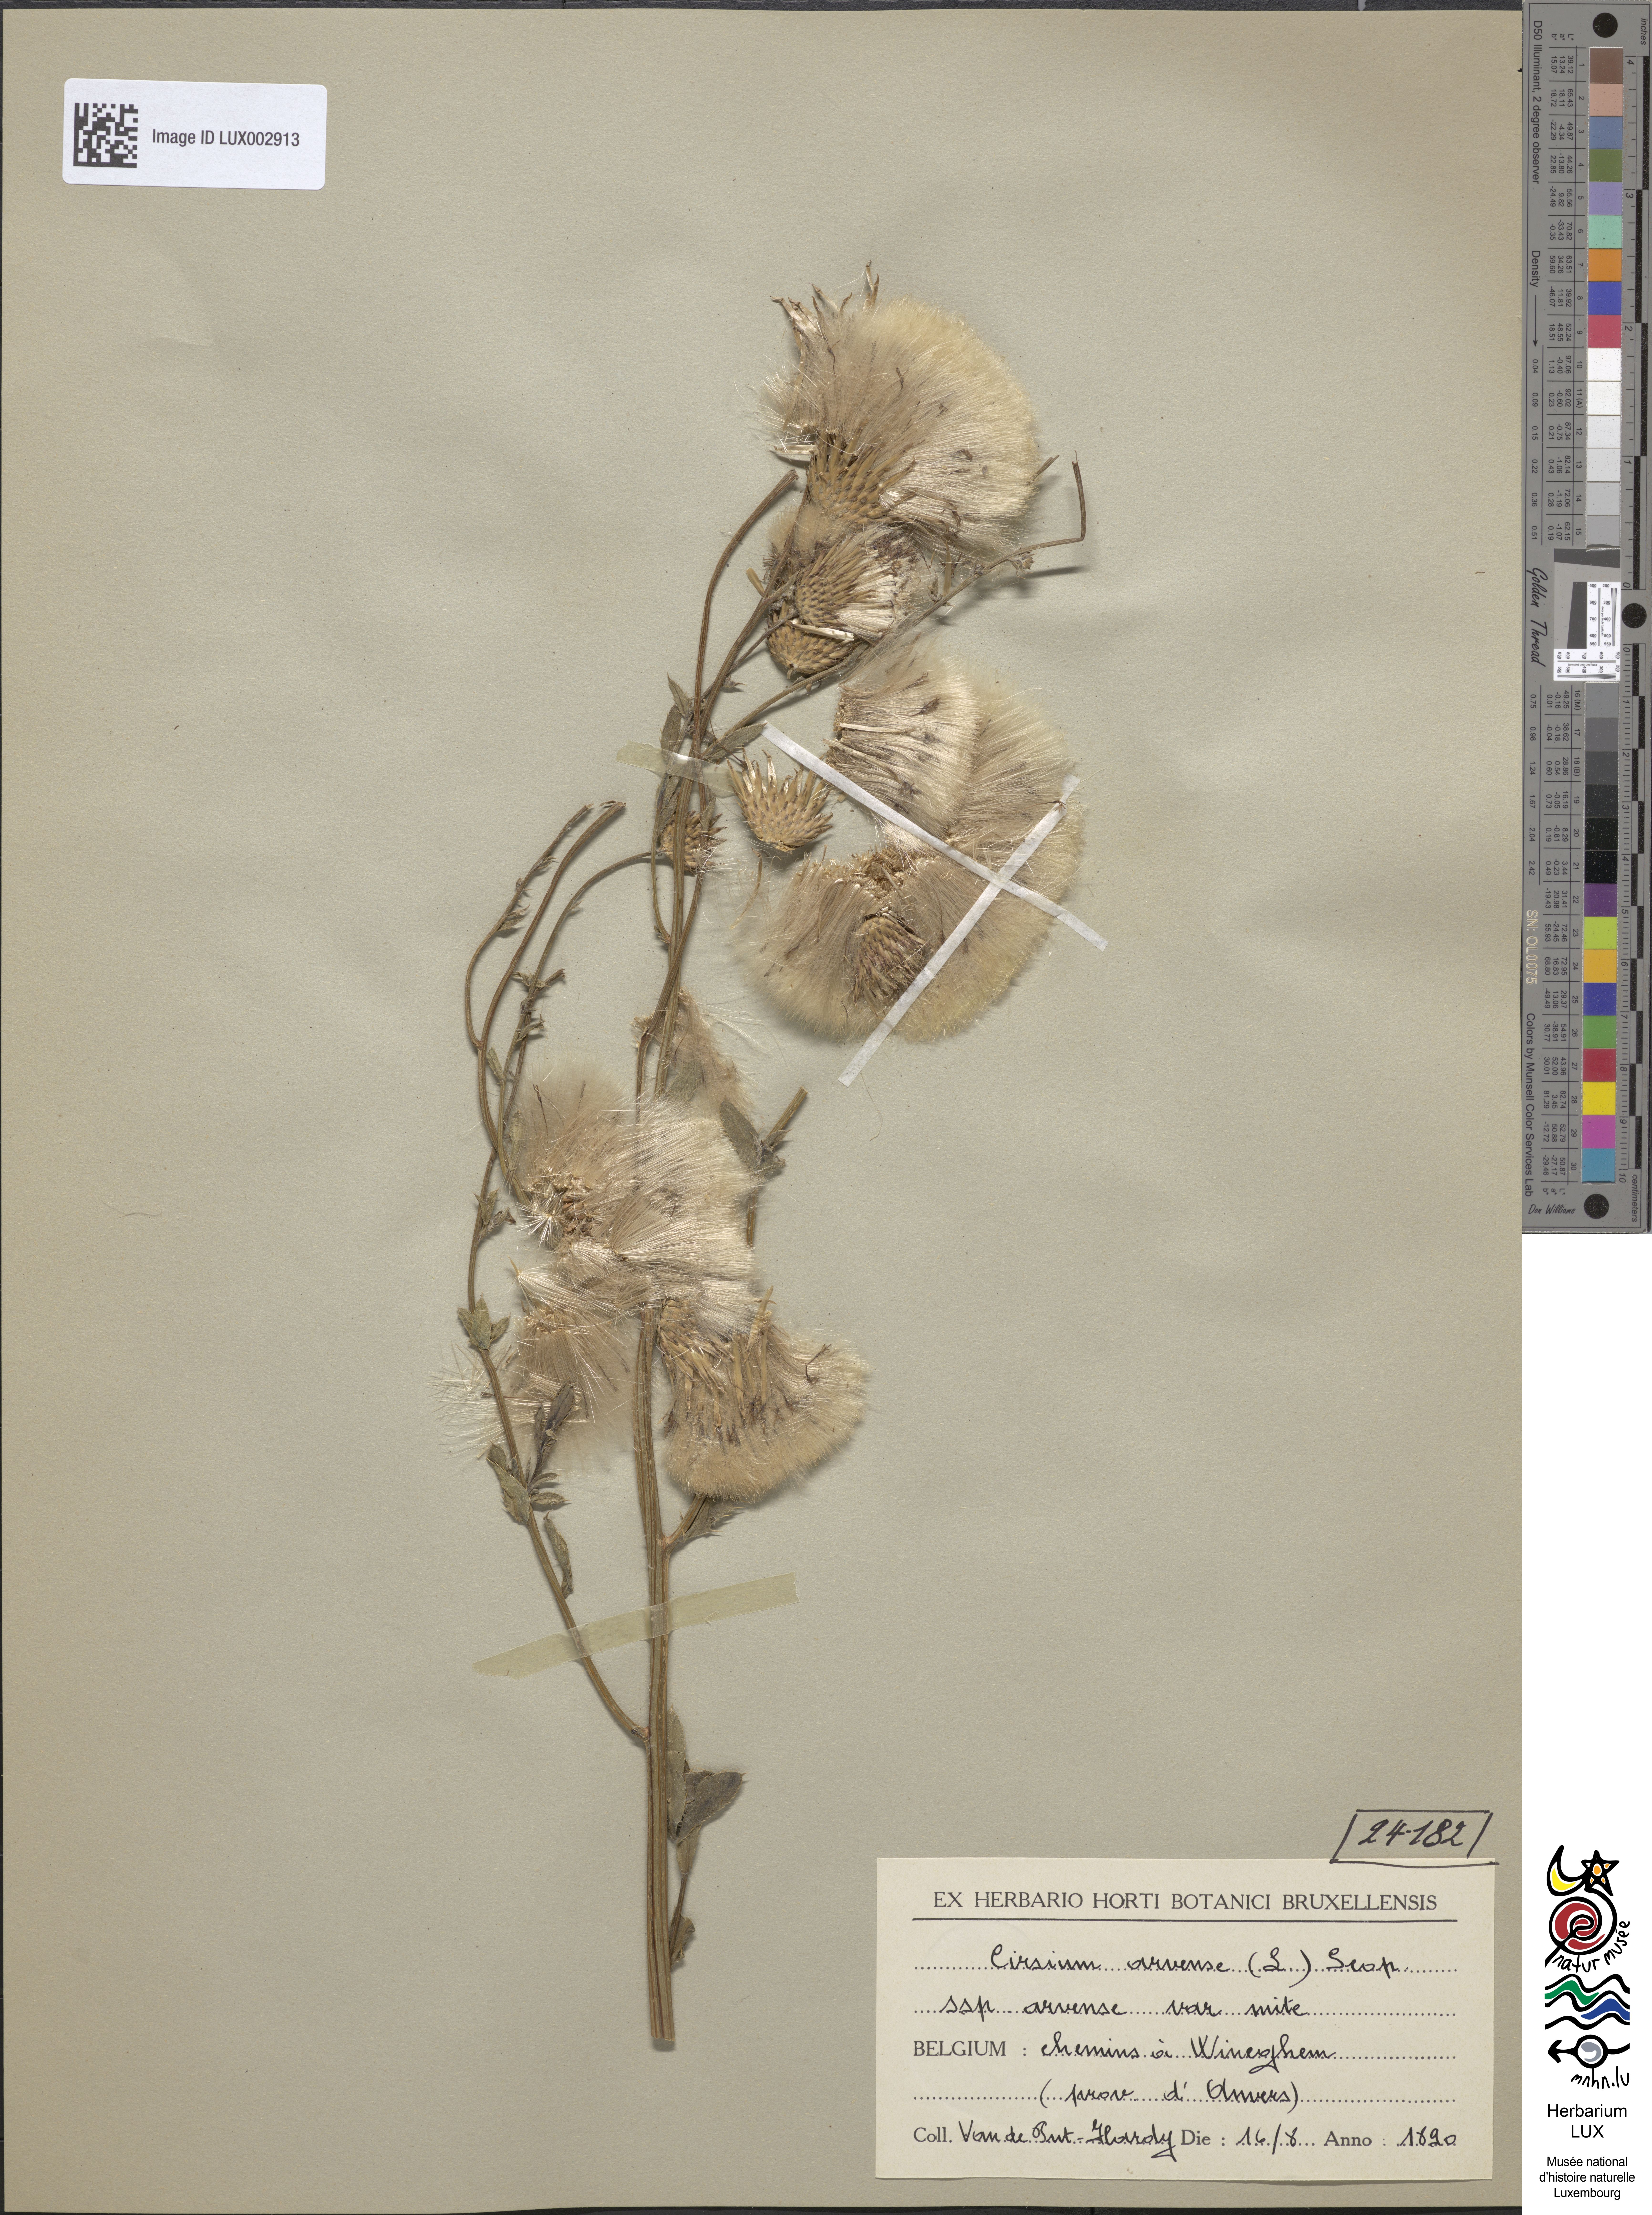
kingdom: Plantae
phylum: Tracheophyta
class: Magnoliopsida
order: Asterales
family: Asteraceae
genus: Cirsium
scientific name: Cirsium arvense
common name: Creeping thistle
